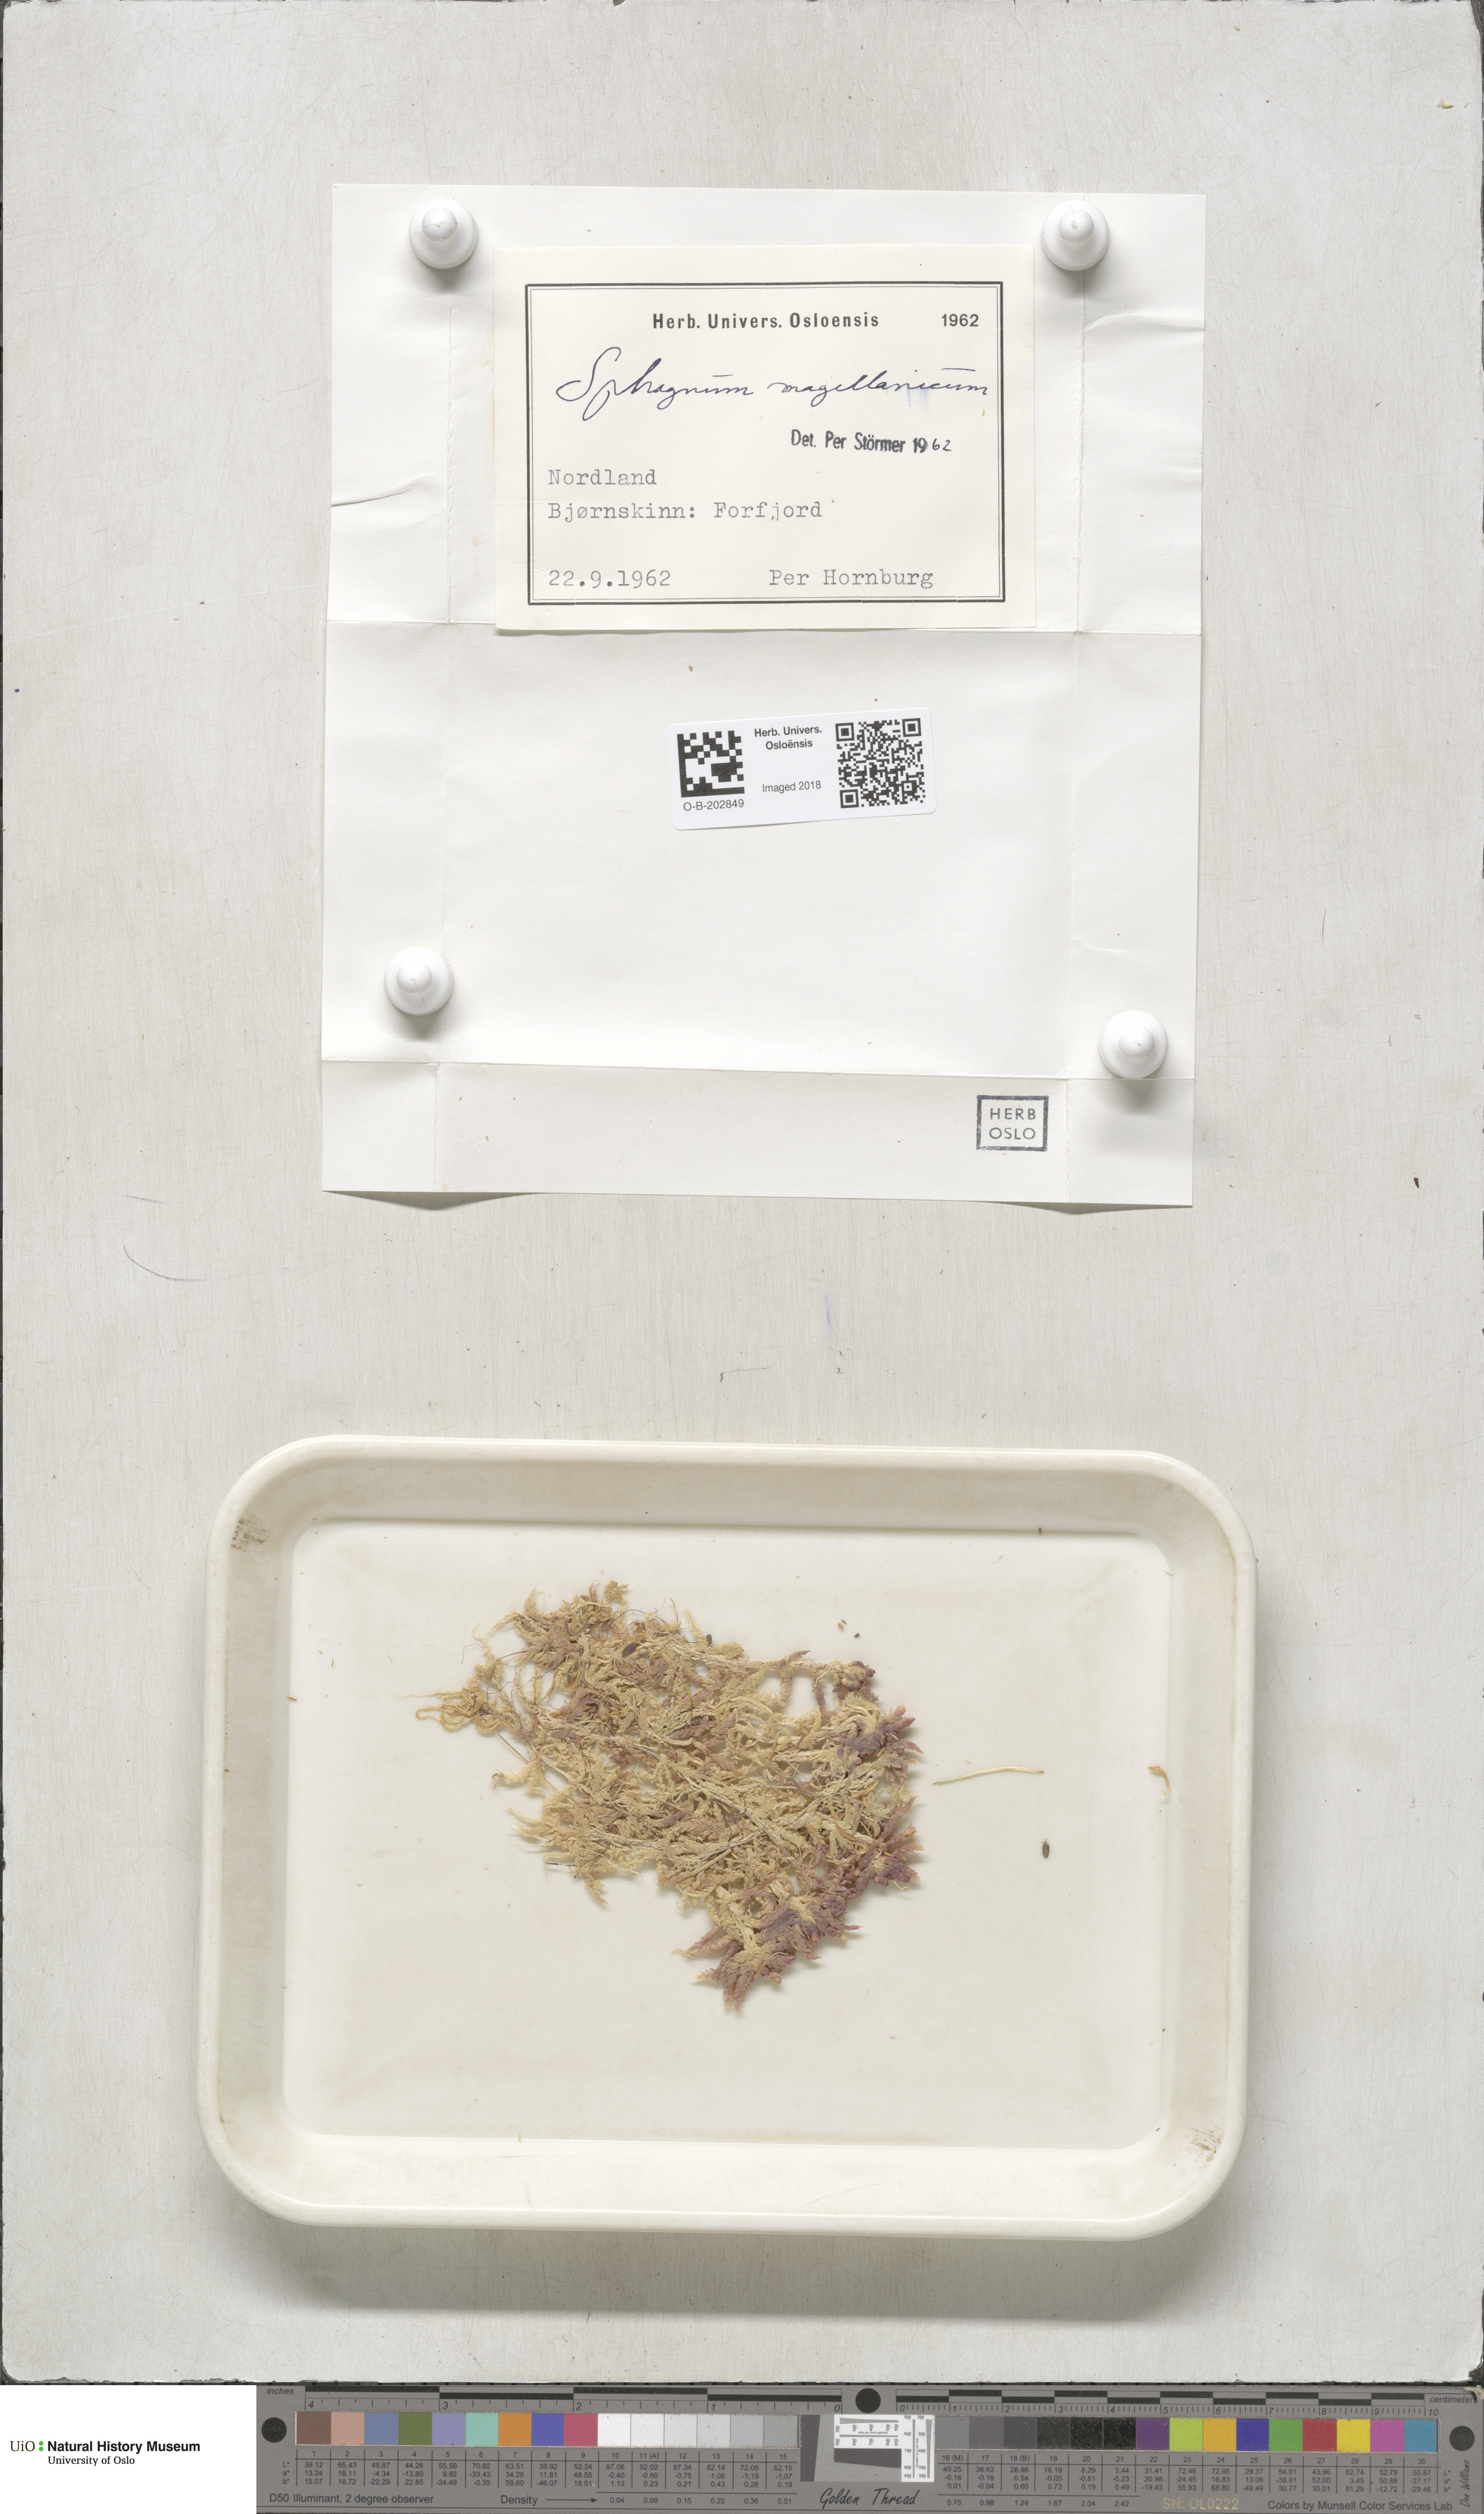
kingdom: Plantae
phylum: Bryophyta
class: Sphagnopsida
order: Sphagnales
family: Sphagnaceae
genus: Sphagnum
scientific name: Sphagnum magellanicum
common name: Magellan's peat moss
